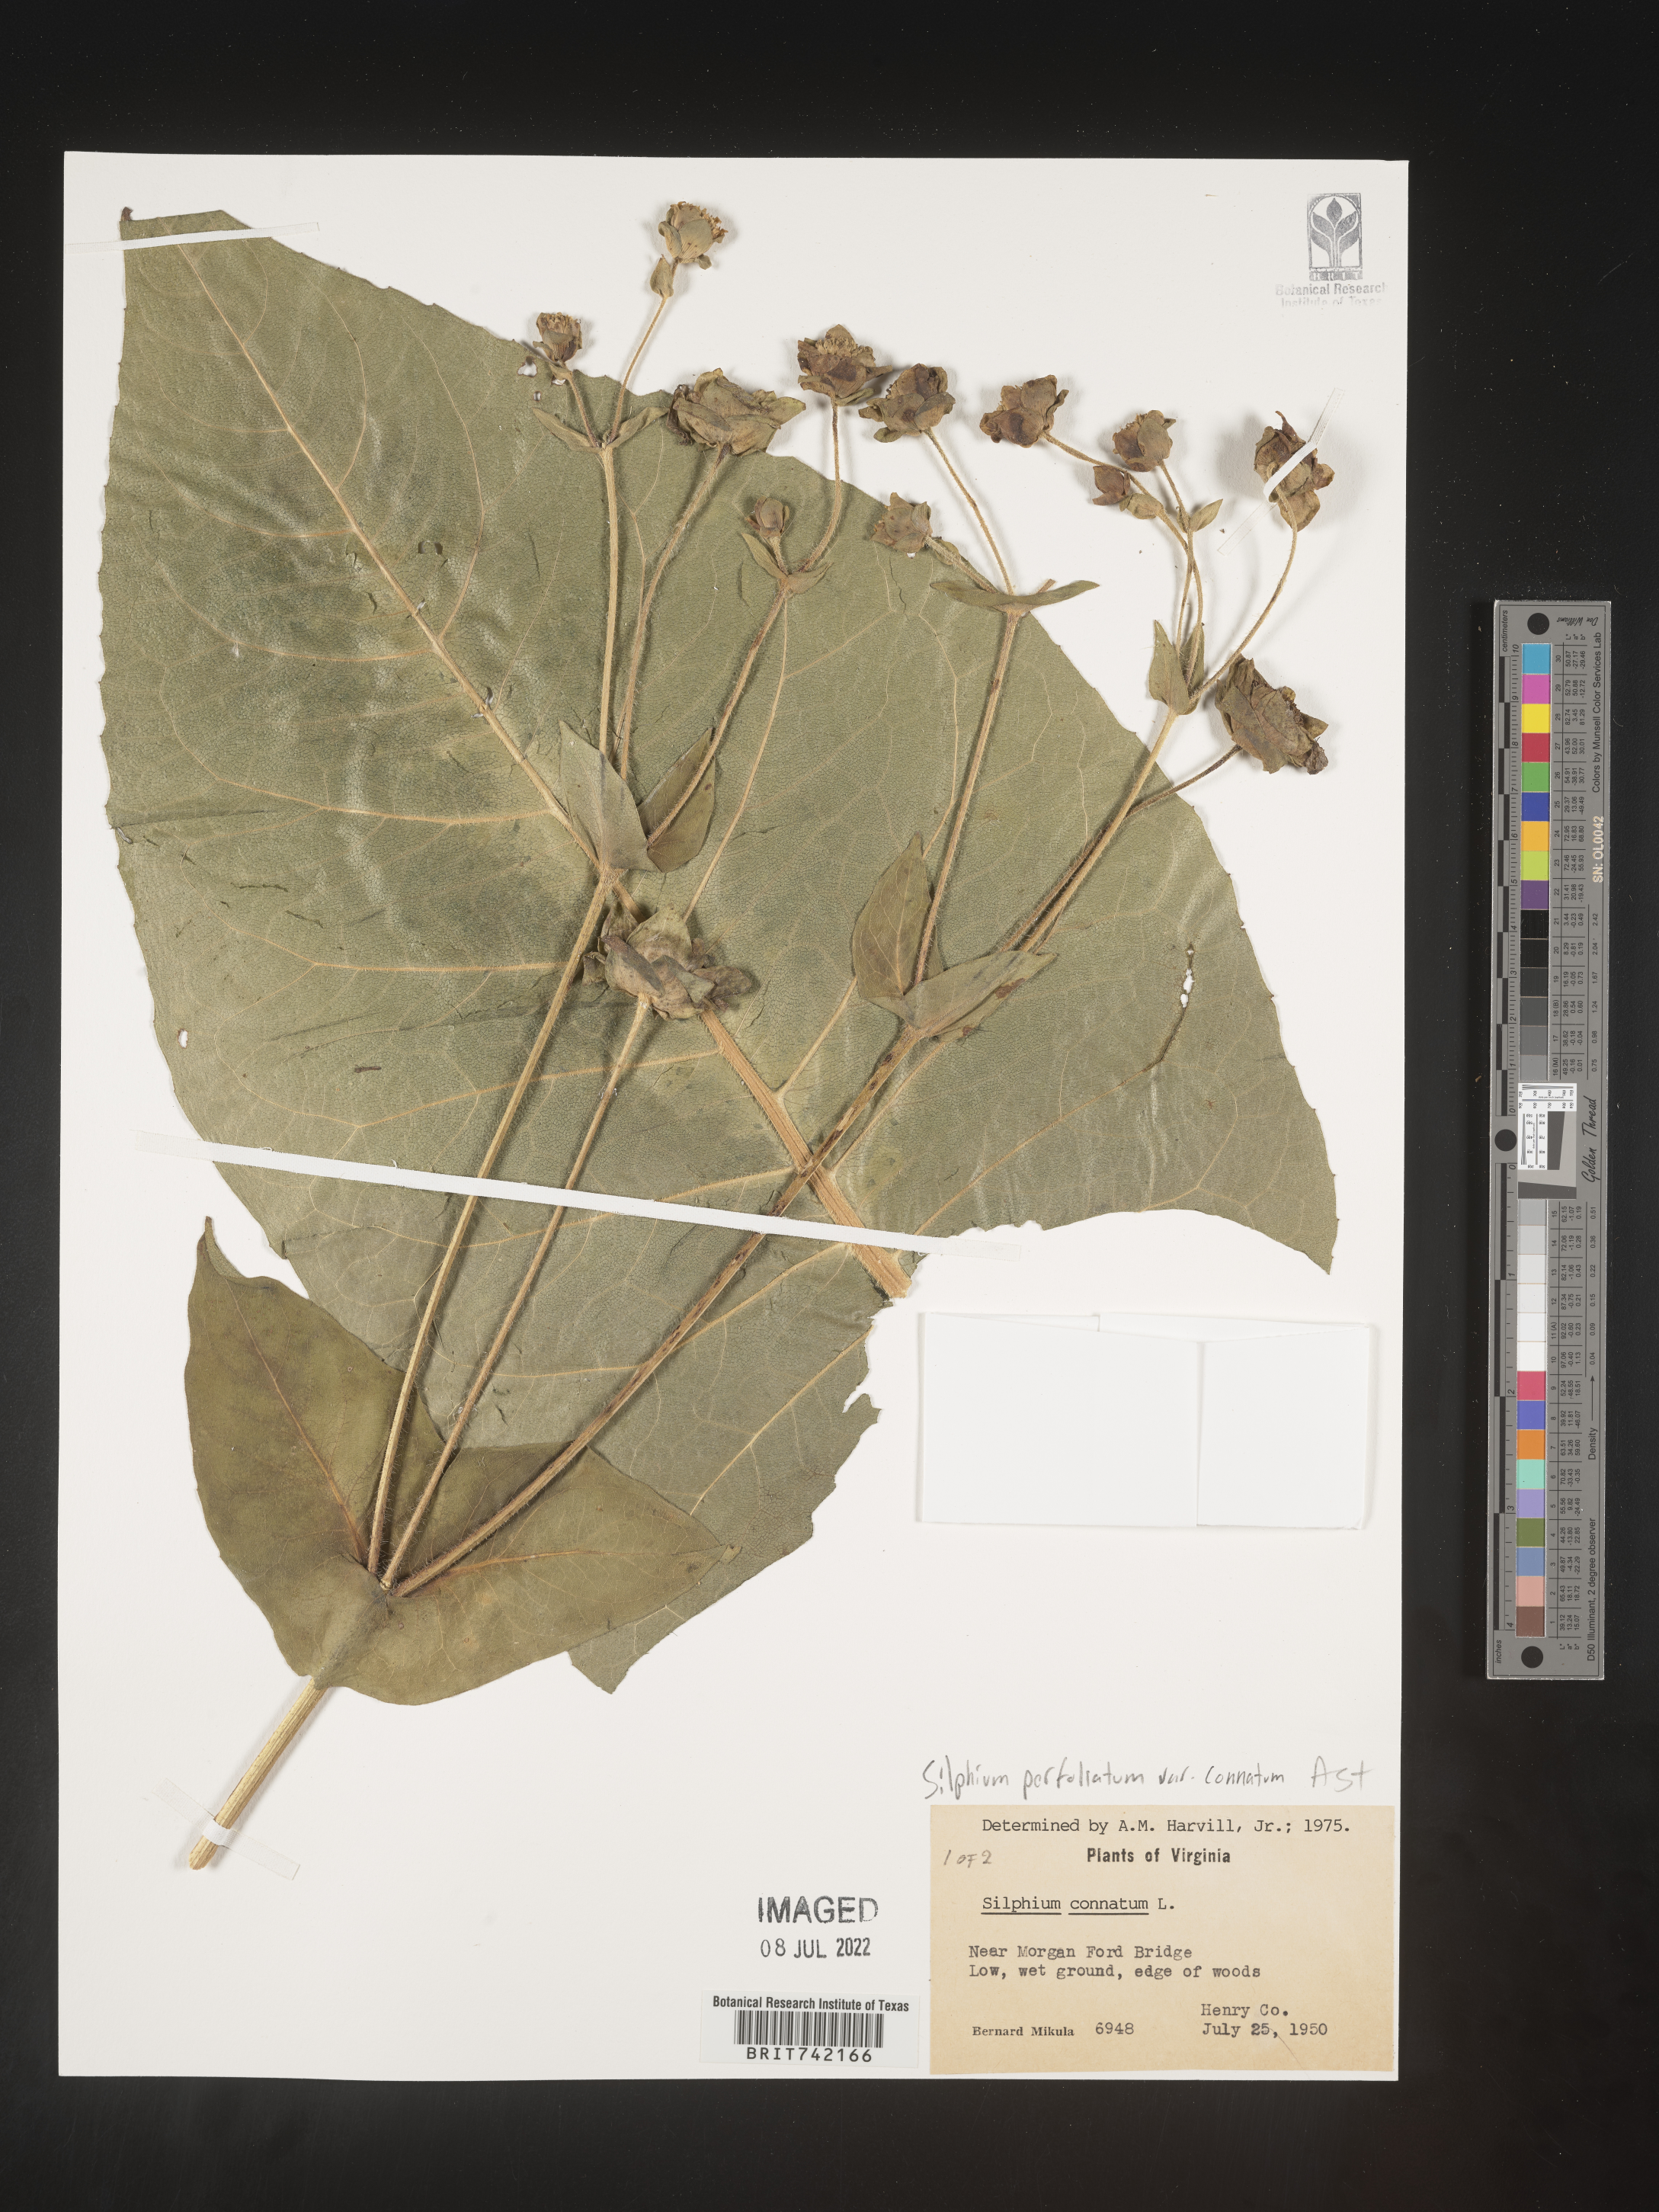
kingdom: Plantae
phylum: Tracheophyta
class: Magnoliopsida
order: Asterales
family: Asteraceae
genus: Silphium
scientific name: Silphium perfoliatum
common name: Cup-plant
